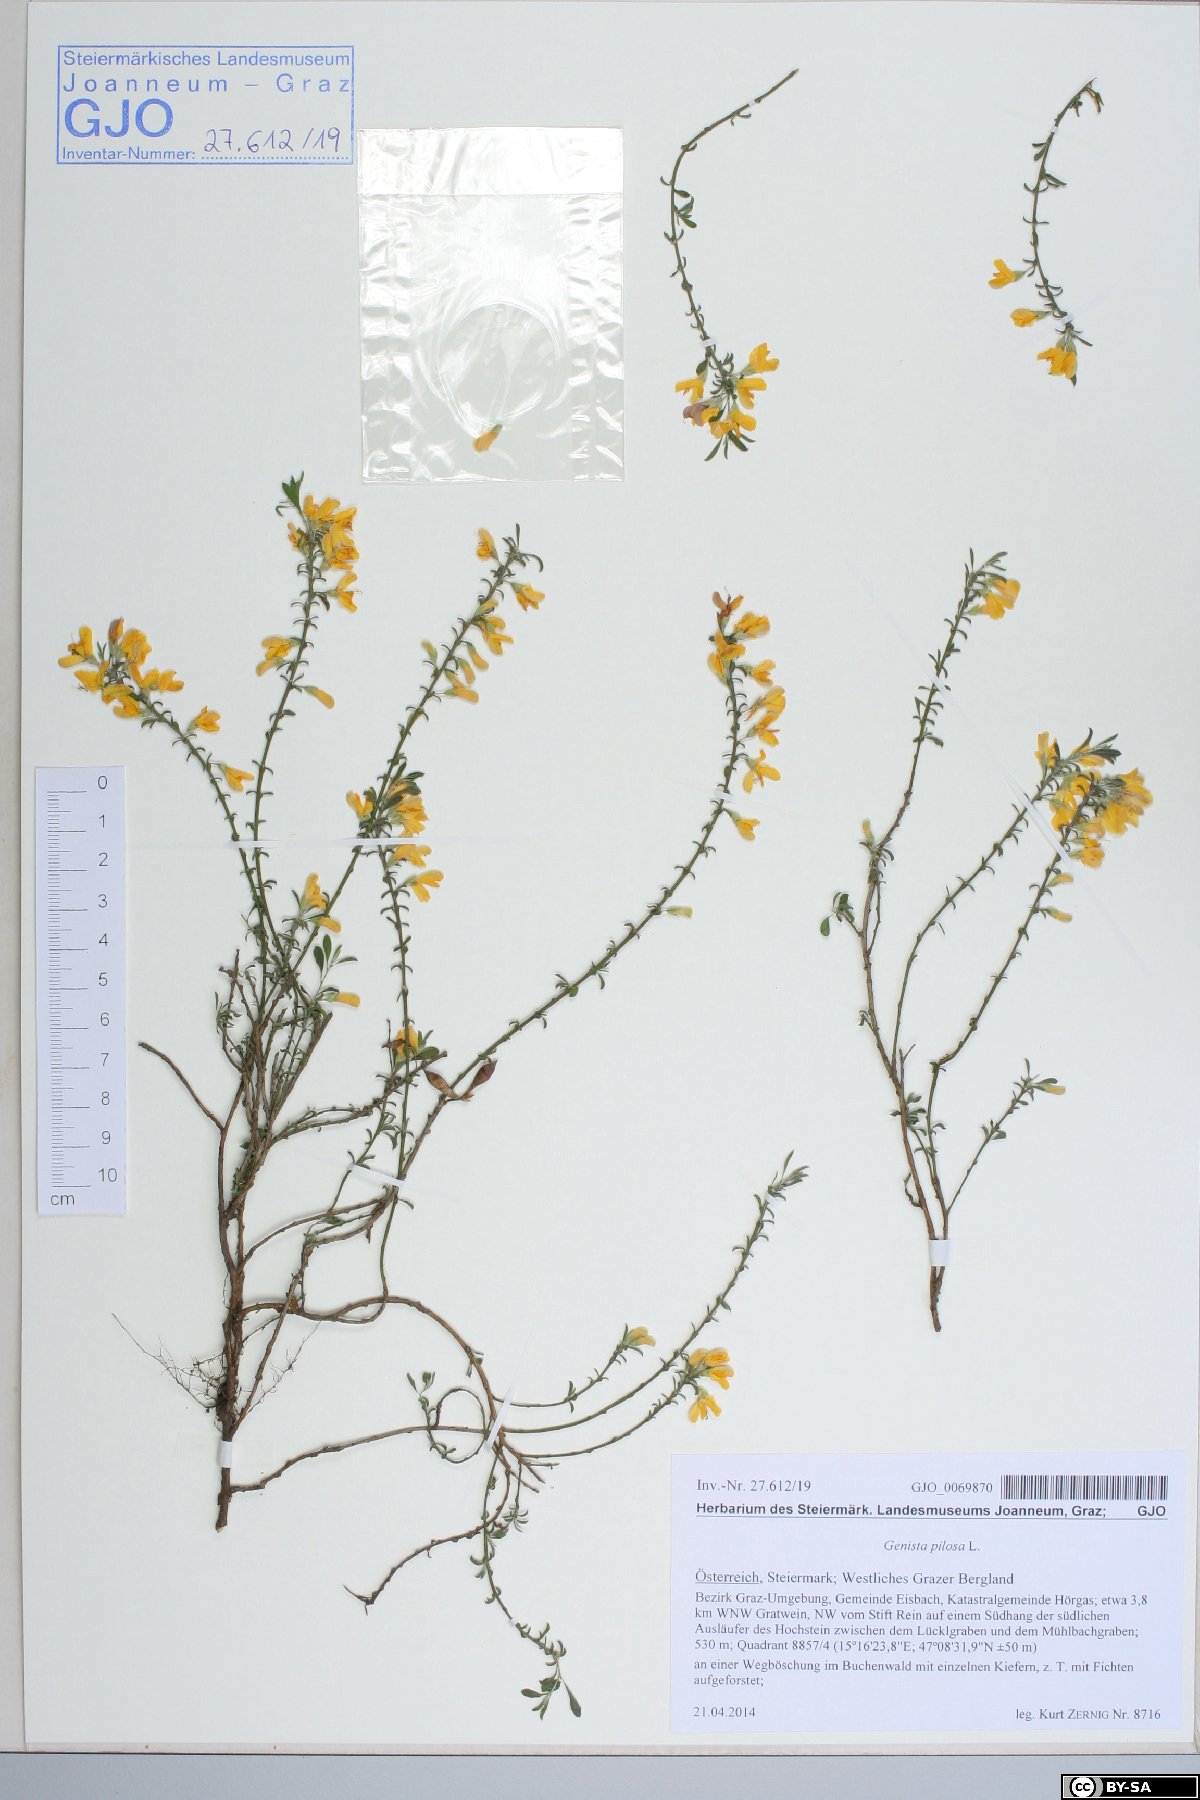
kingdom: Plantae
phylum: Tracheophyta
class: Magnoliopsida
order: Fabales
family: Fabaceae
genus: Genista
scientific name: Genista pilosa
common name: Hairy greenweed
